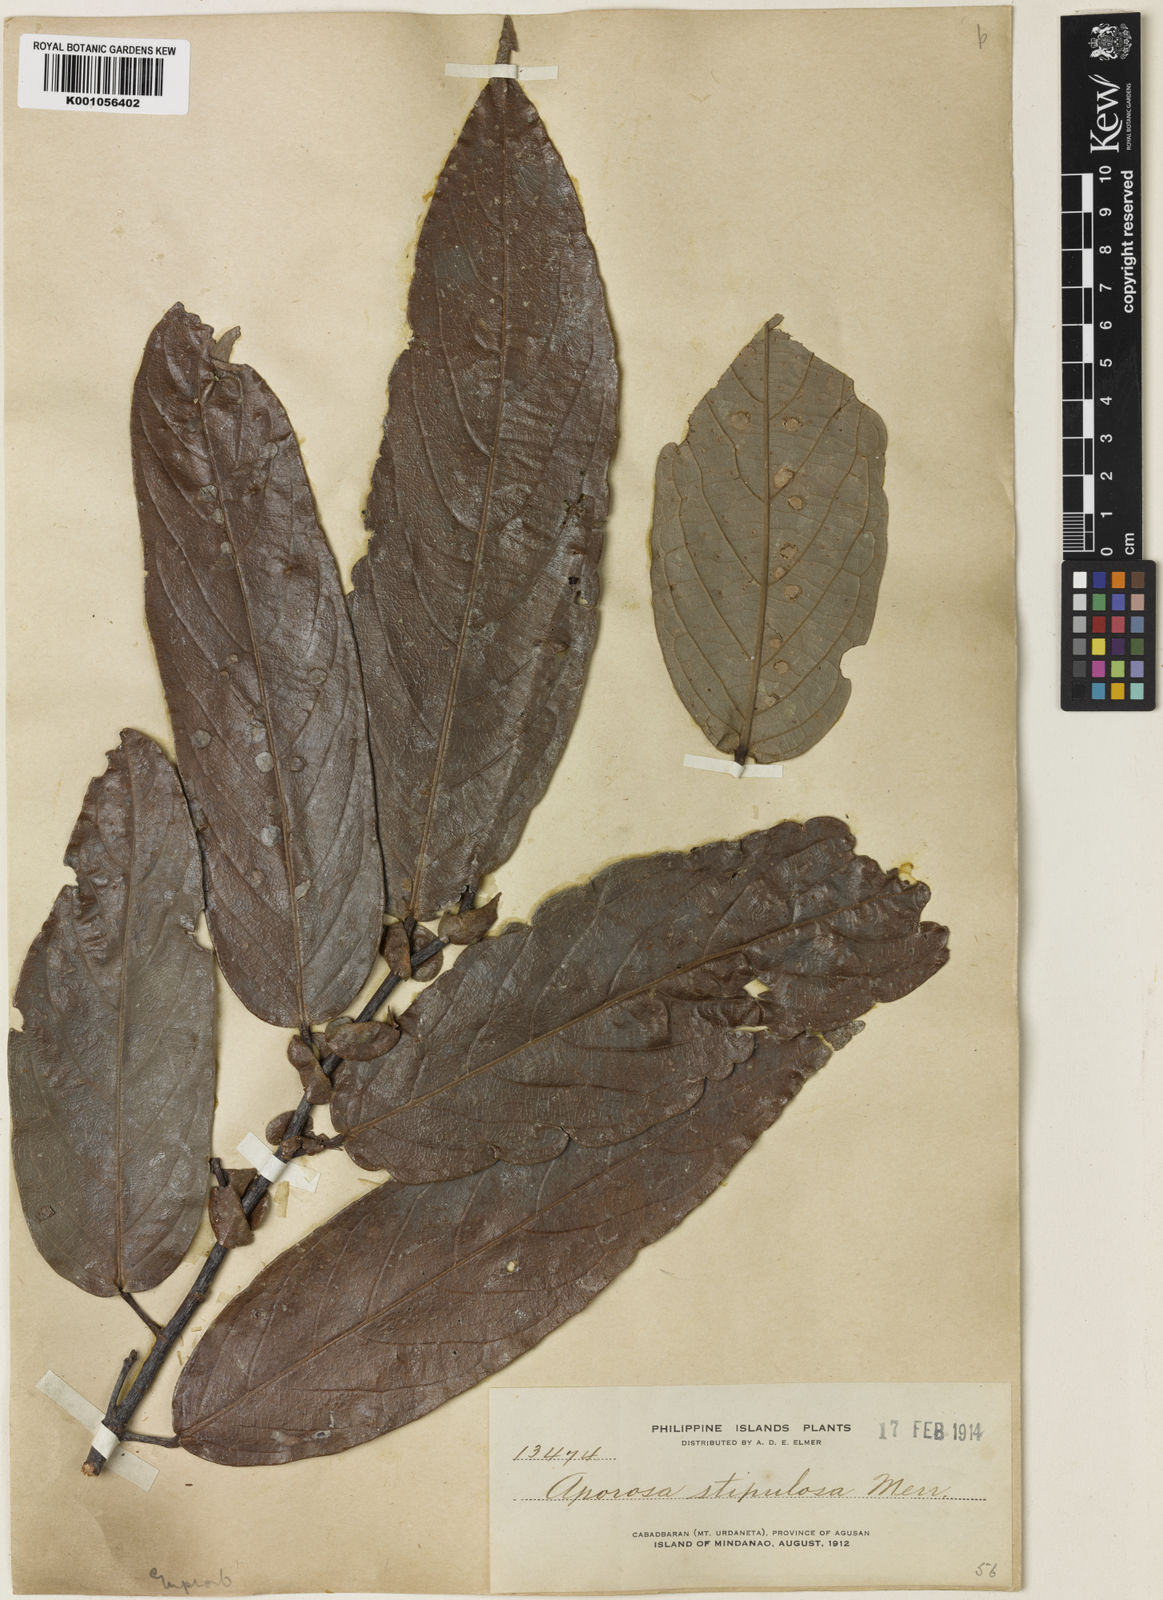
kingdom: Plantae
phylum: Tracheophyta
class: Magnoliopsida
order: Malpighiales
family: Phyllanthaceae
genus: Aporosa
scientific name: Aporosa benthamiana
